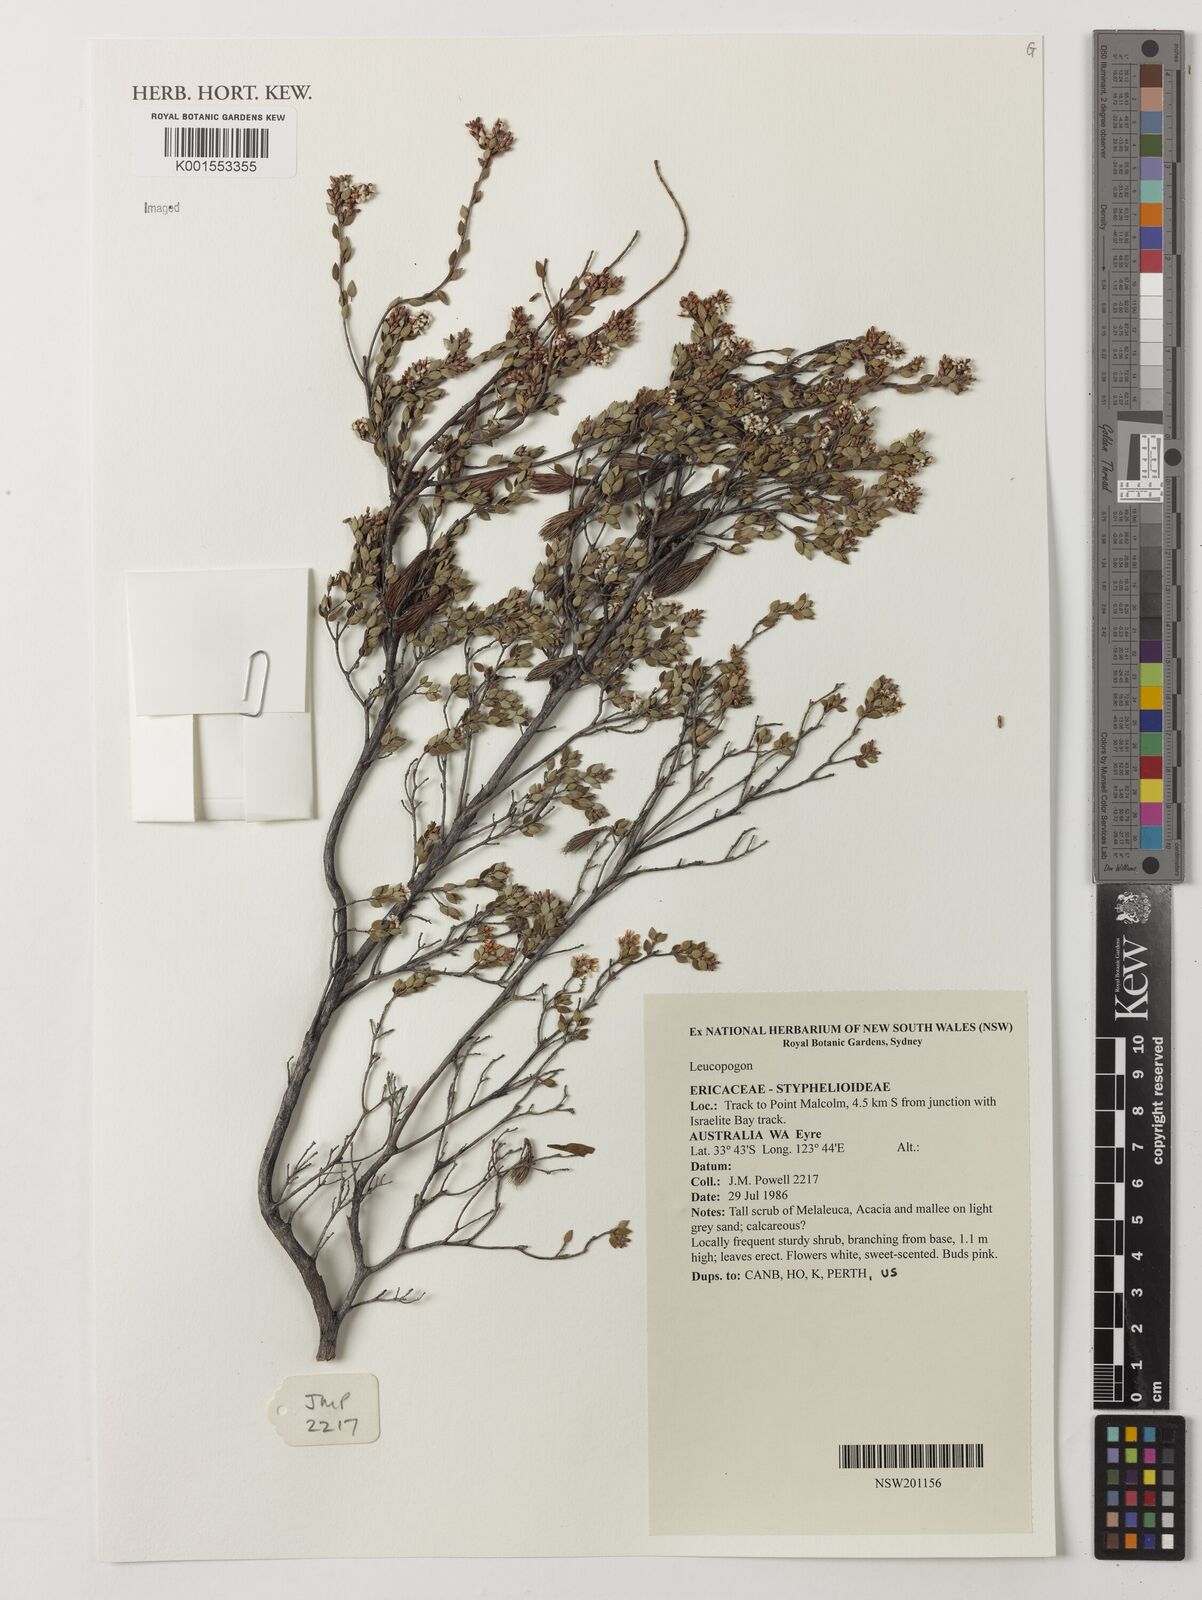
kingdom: Plantae
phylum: Tracheophyta
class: Magnoliopsida
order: Ericales
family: Ericaceae
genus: Leucopogon
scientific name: Leucopogon
